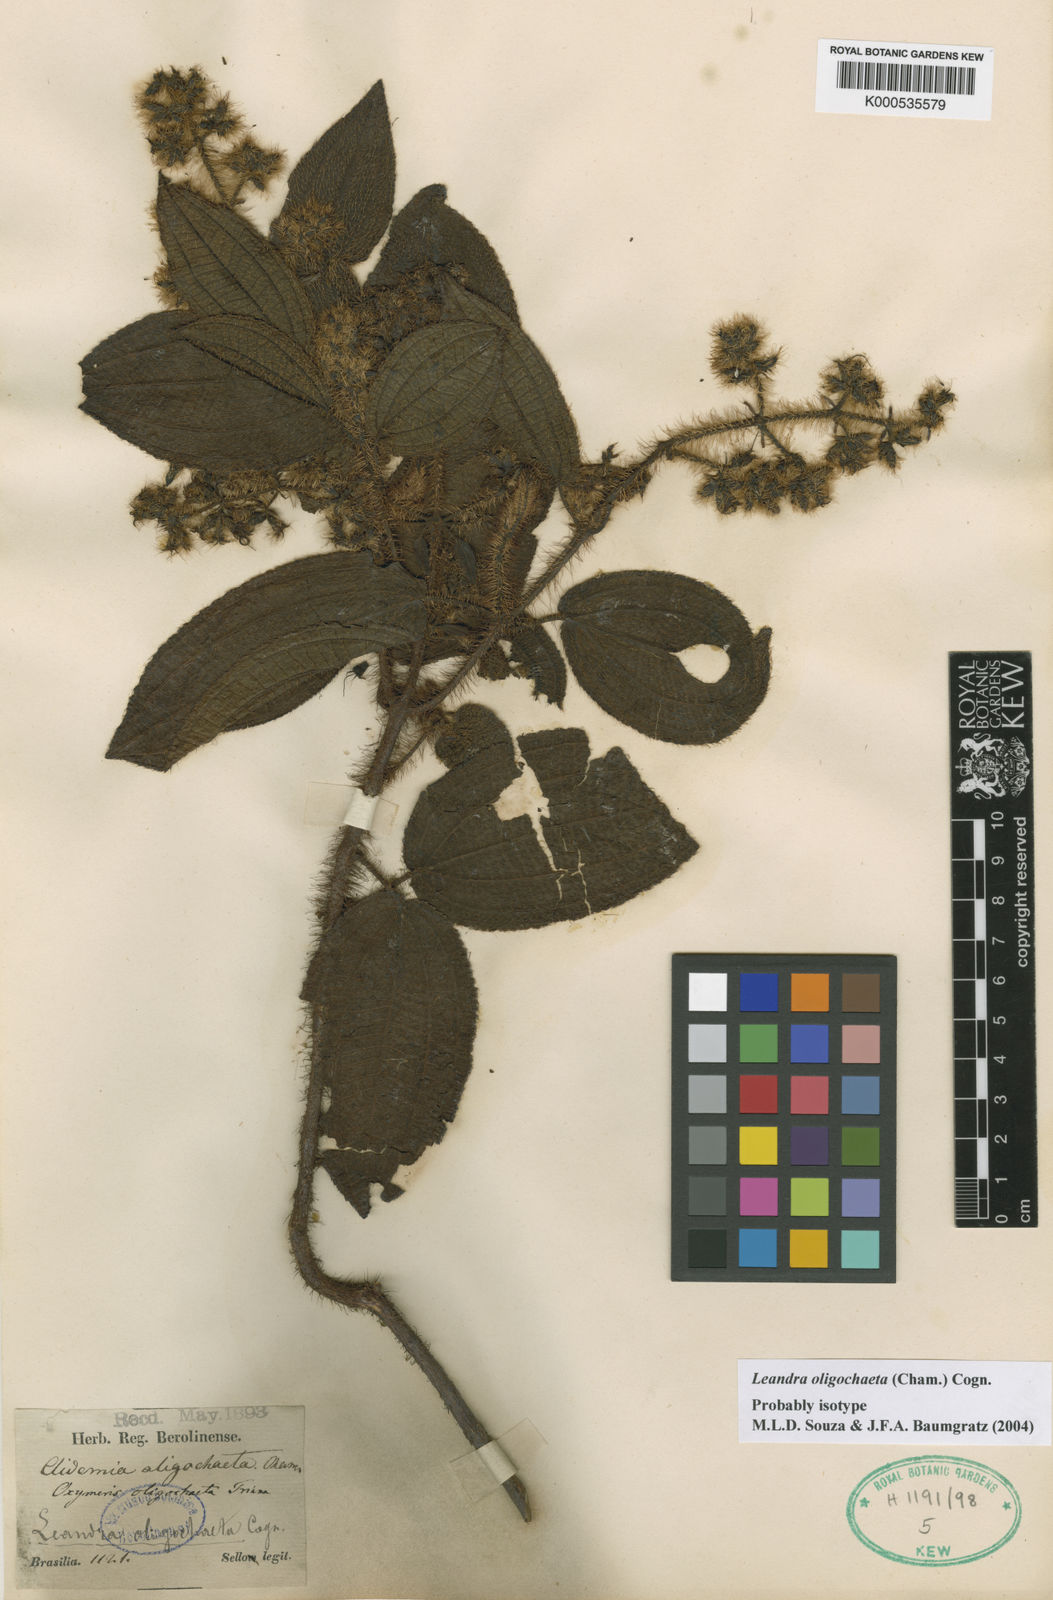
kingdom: Plantae
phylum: Tracheophyta
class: Magnoliopsida
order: Myrtales
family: Melastomataceae
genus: Miconia
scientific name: Miconia oligochaeta
